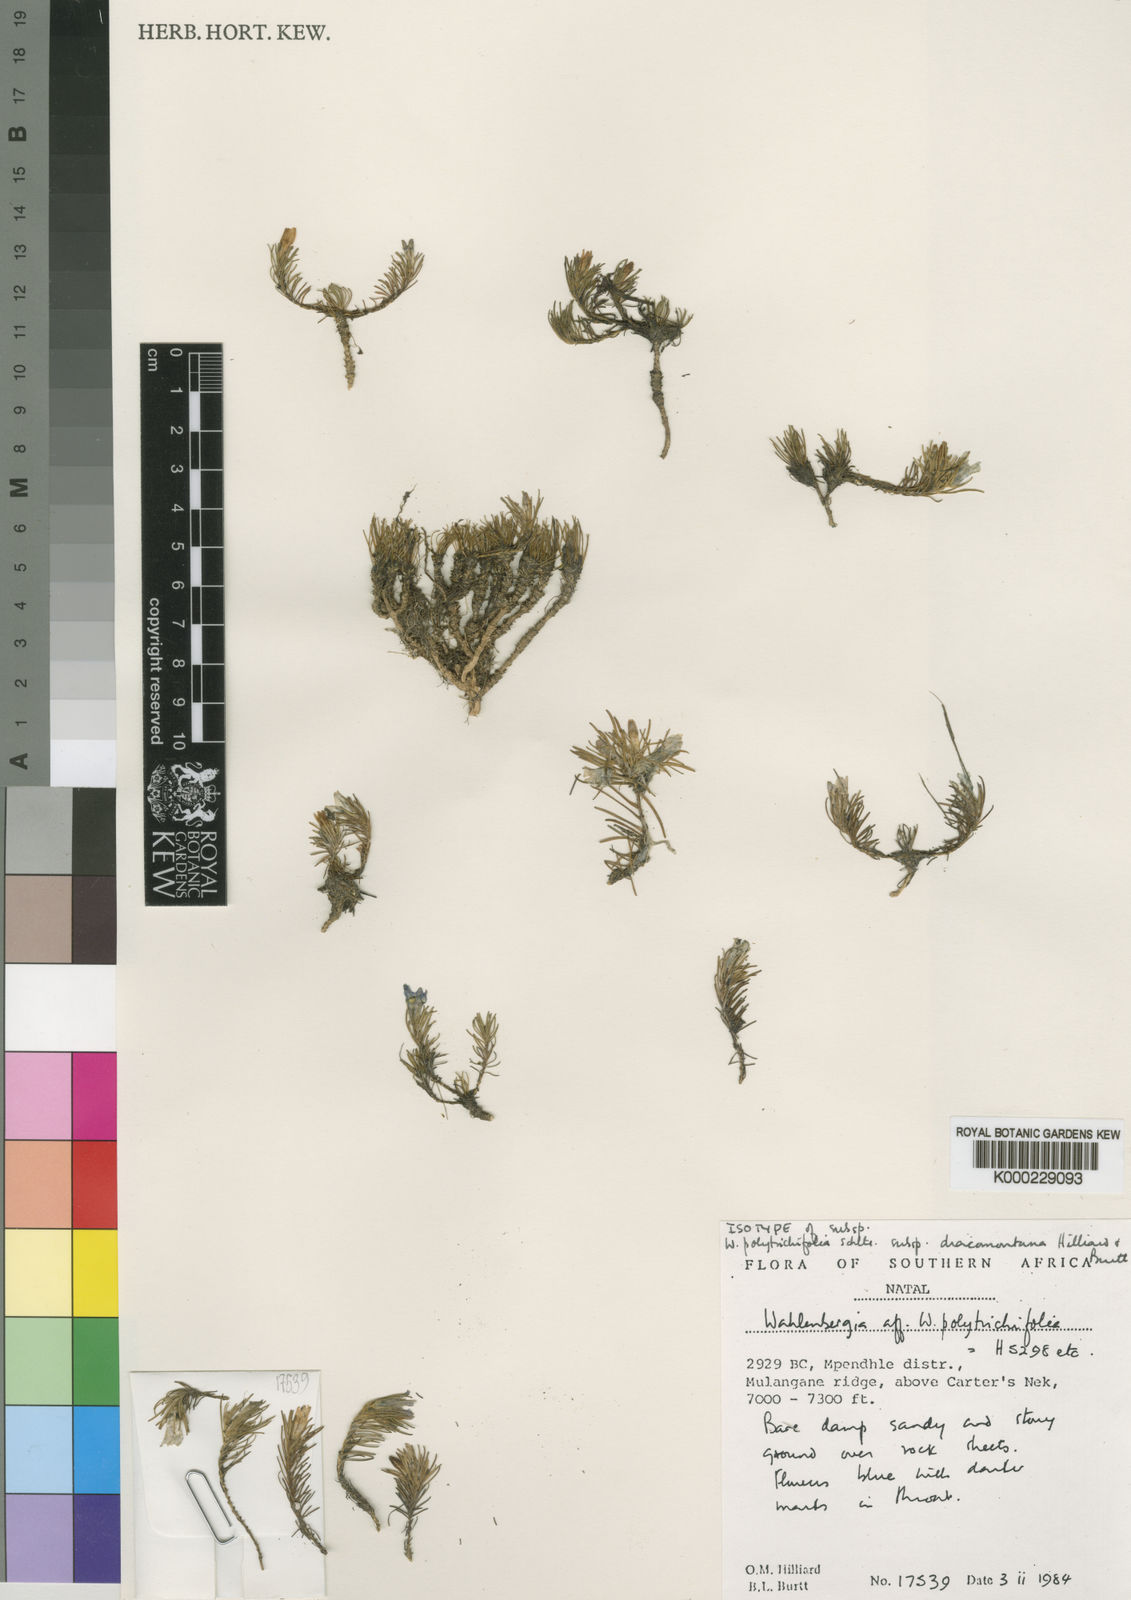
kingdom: Plantae
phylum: Tracheophyta
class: Magnoliopsida
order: Asterales
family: Campanulaceae
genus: Wahlenbergia
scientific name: Wahlenbergia polytrichifolia
